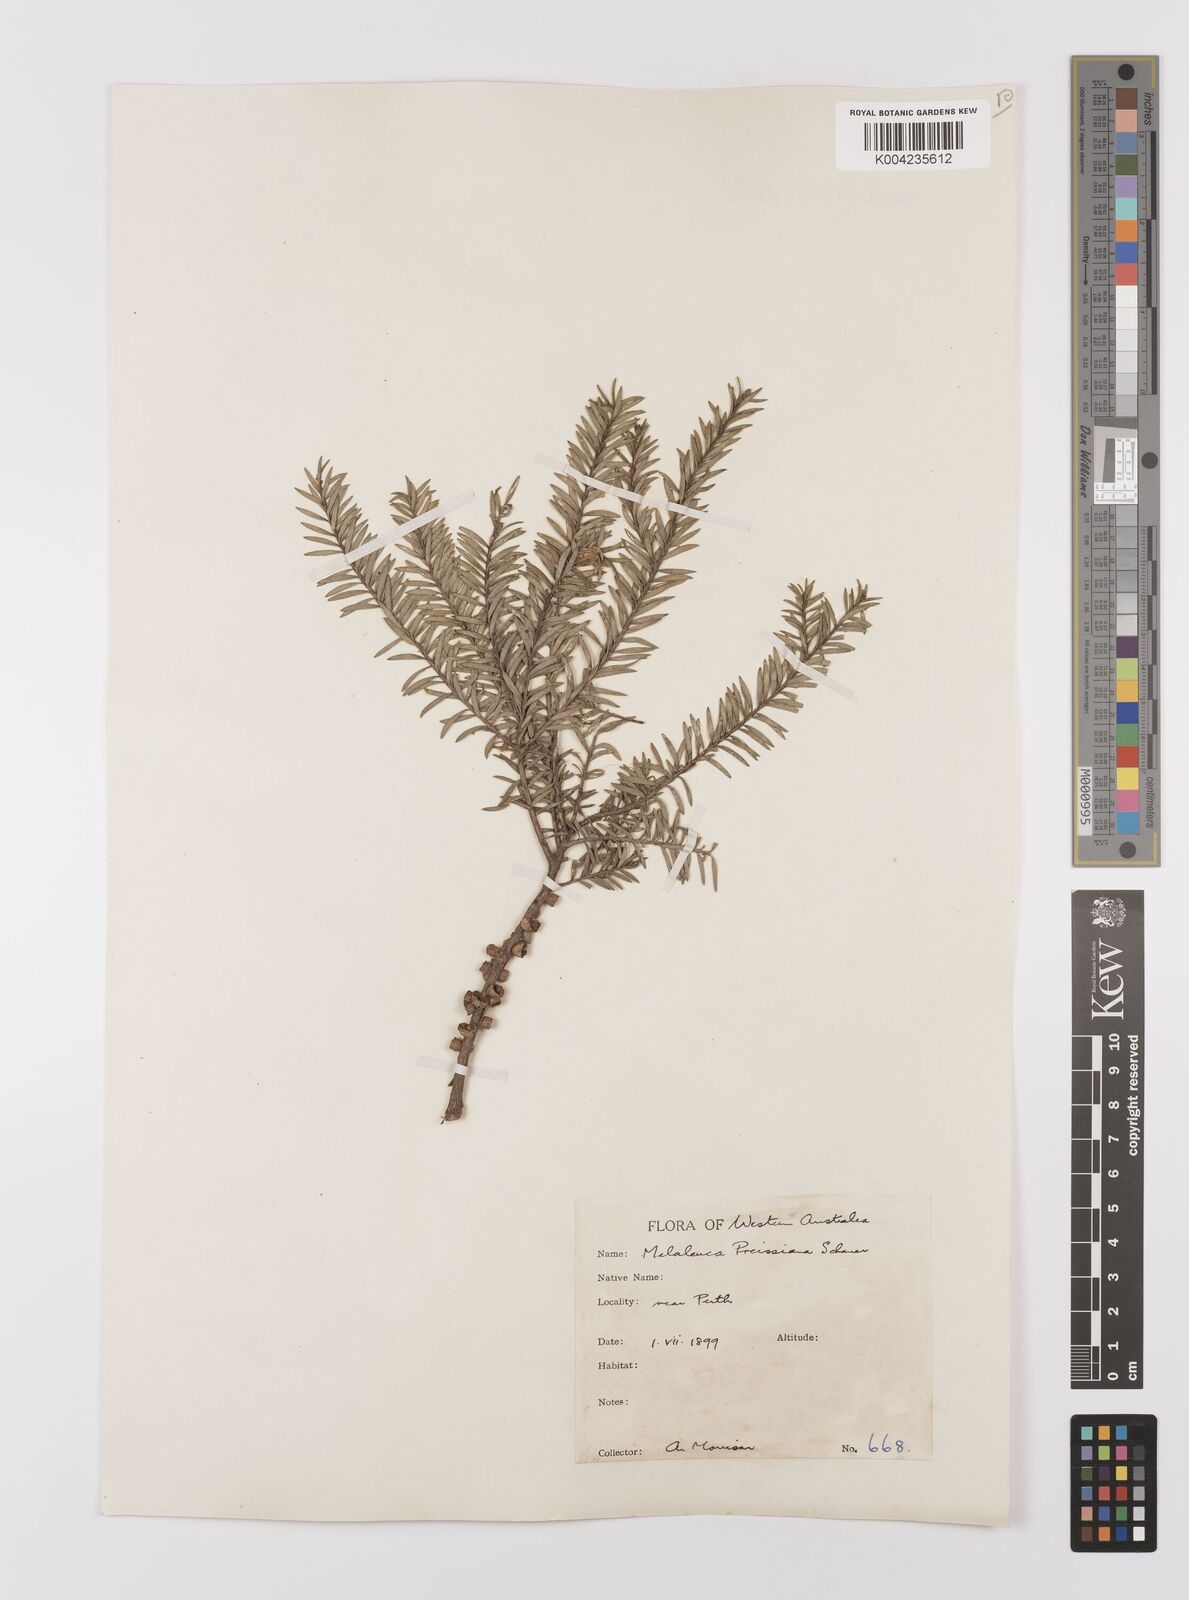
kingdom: Plantae
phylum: Tracheophyta
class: Magnoliopsida
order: Myrtales
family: Myrtaceae
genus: Melaleuca
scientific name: Melaleuca preissiana
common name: Preiss's paperbark
